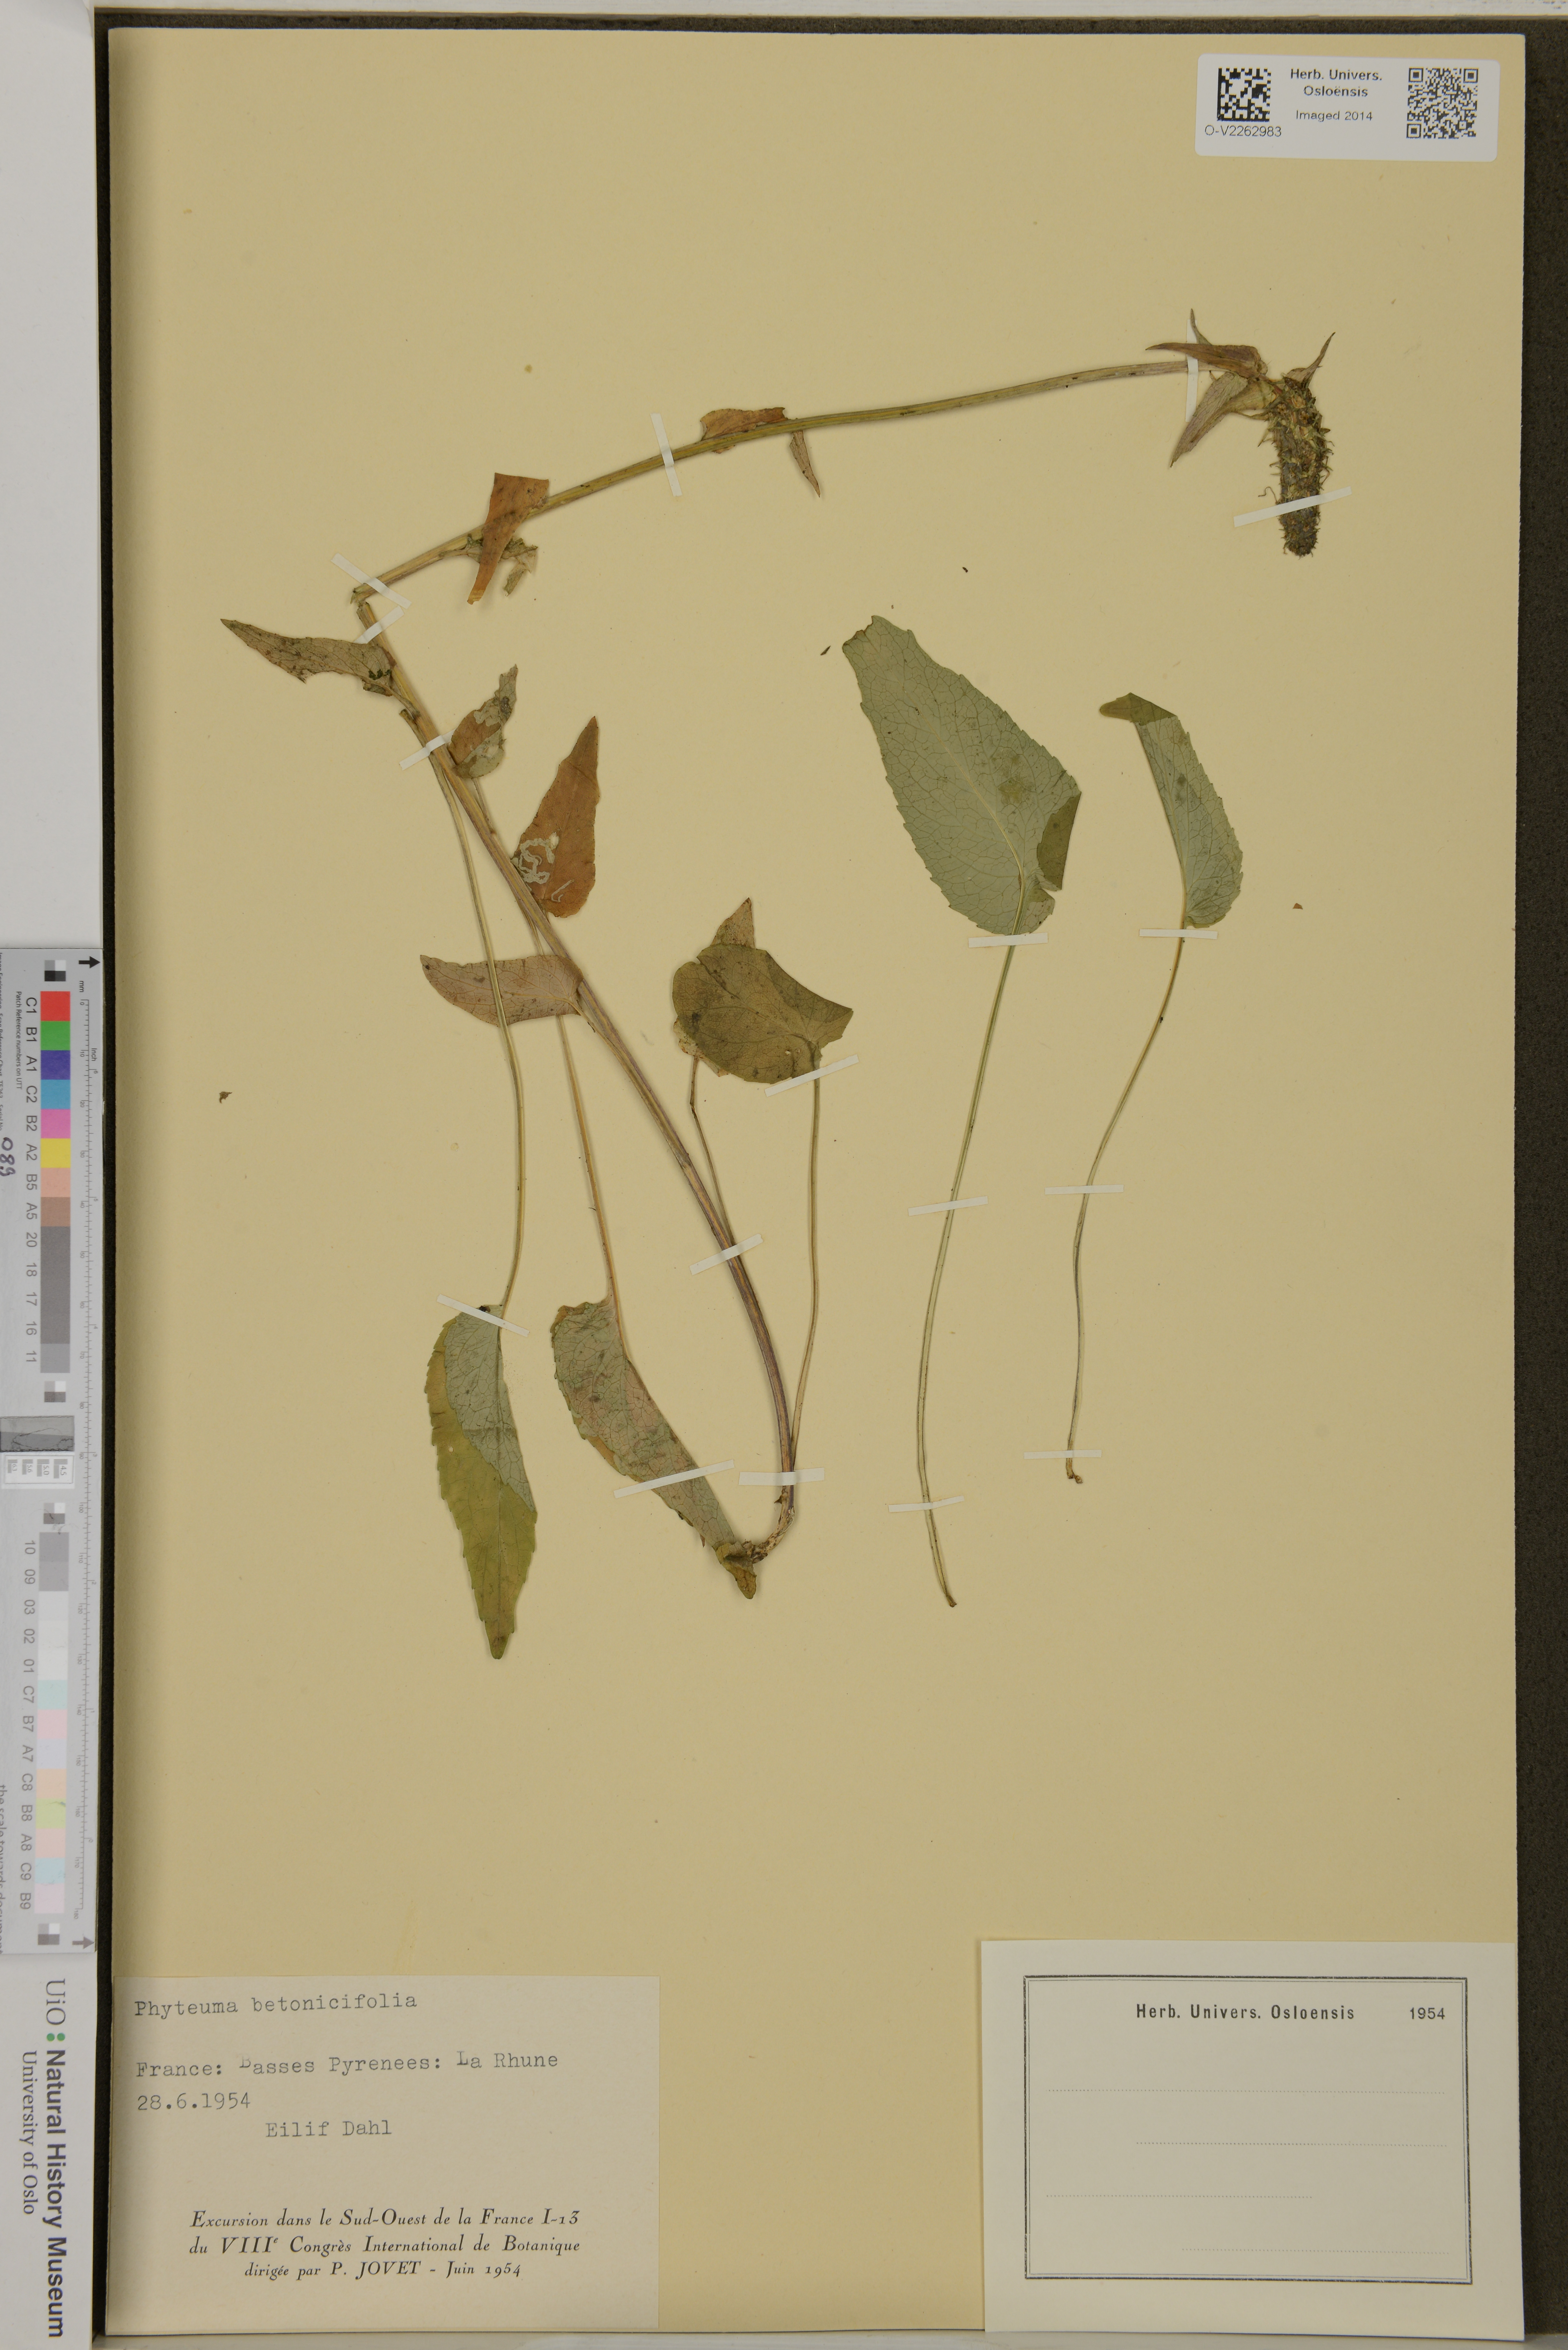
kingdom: Plantae
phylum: Tracheophyta
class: Magnoliopsida
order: Asterales
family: Campanulaceae
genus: Phyteuma
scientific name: Phyteuma betonicifolium
